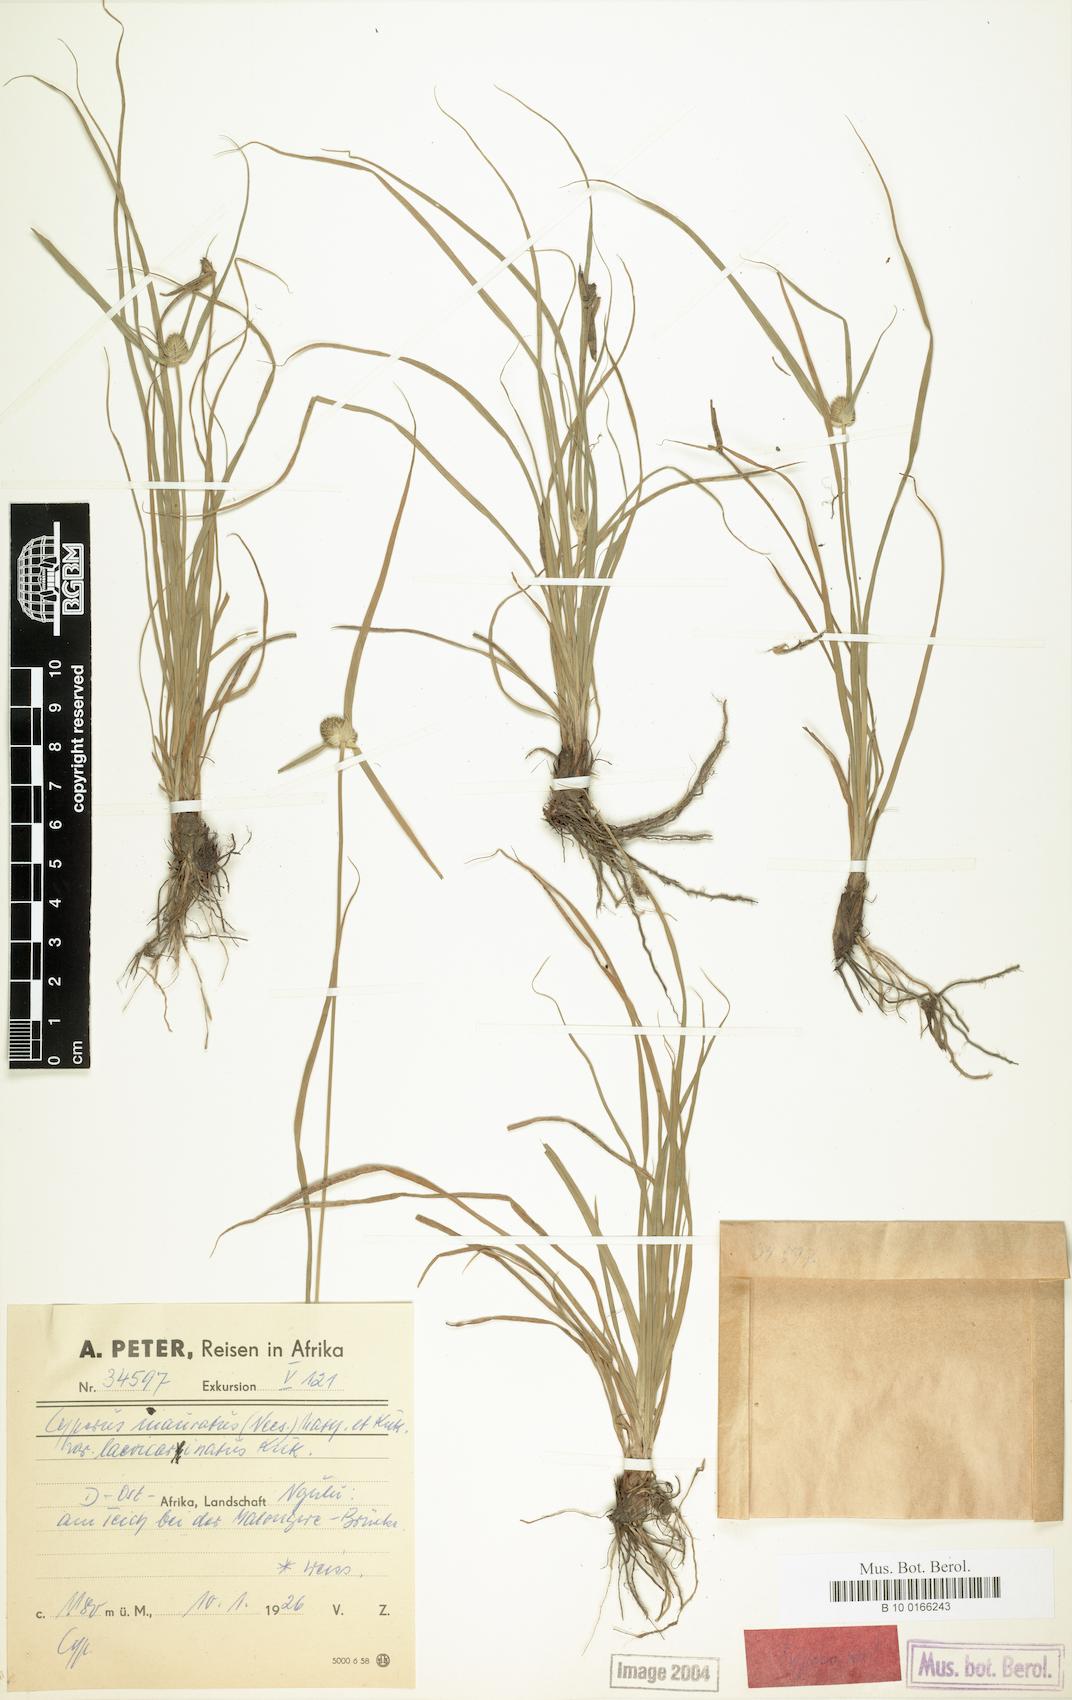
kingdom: Plantae
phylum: Tracheophyta
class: Liliopsida
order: Poales
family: Cyperaceae
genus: Cyperus
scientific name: Cyperus inauratus
